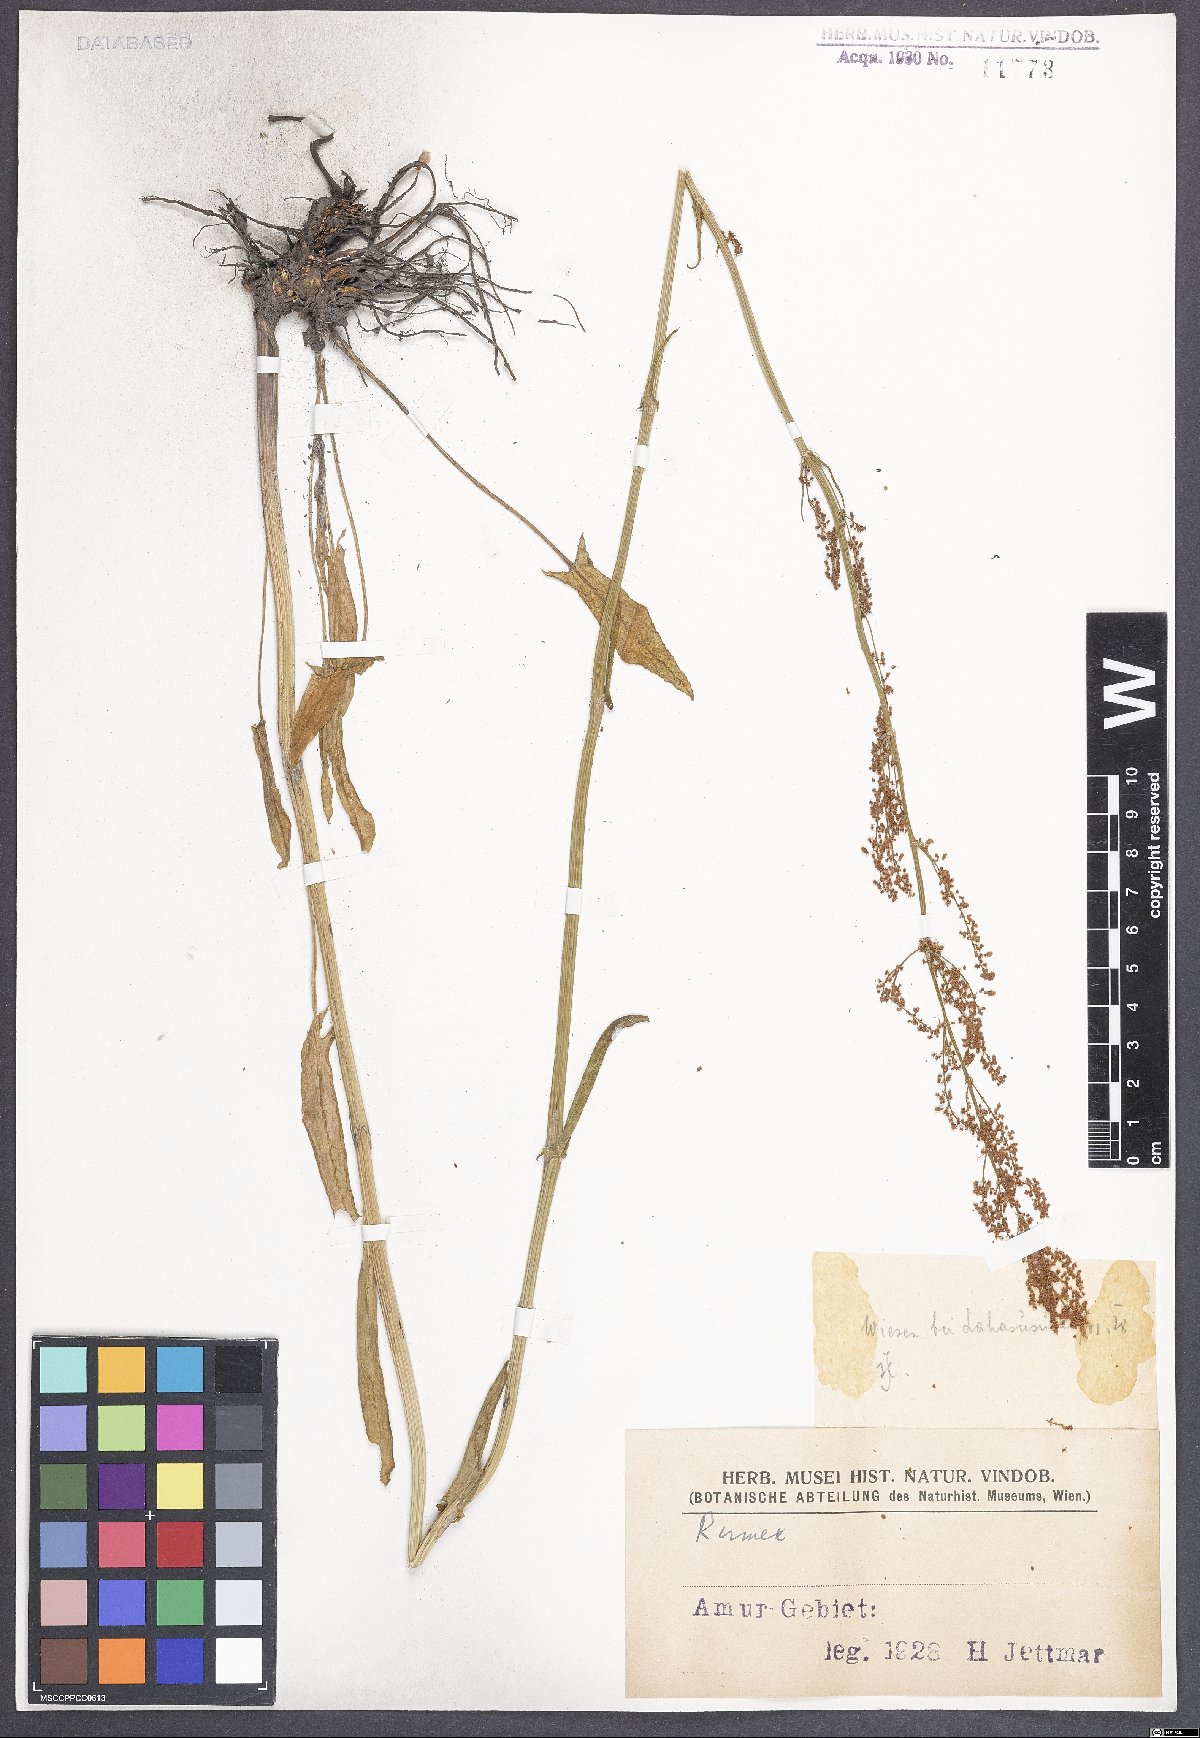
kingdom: Plantae
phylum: Tracheophyta
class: Magnoliopsida
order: Caryophyllales
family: Polygonaceae
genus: Rumex
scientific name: Rumex acetosa
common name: Garden sorrel
